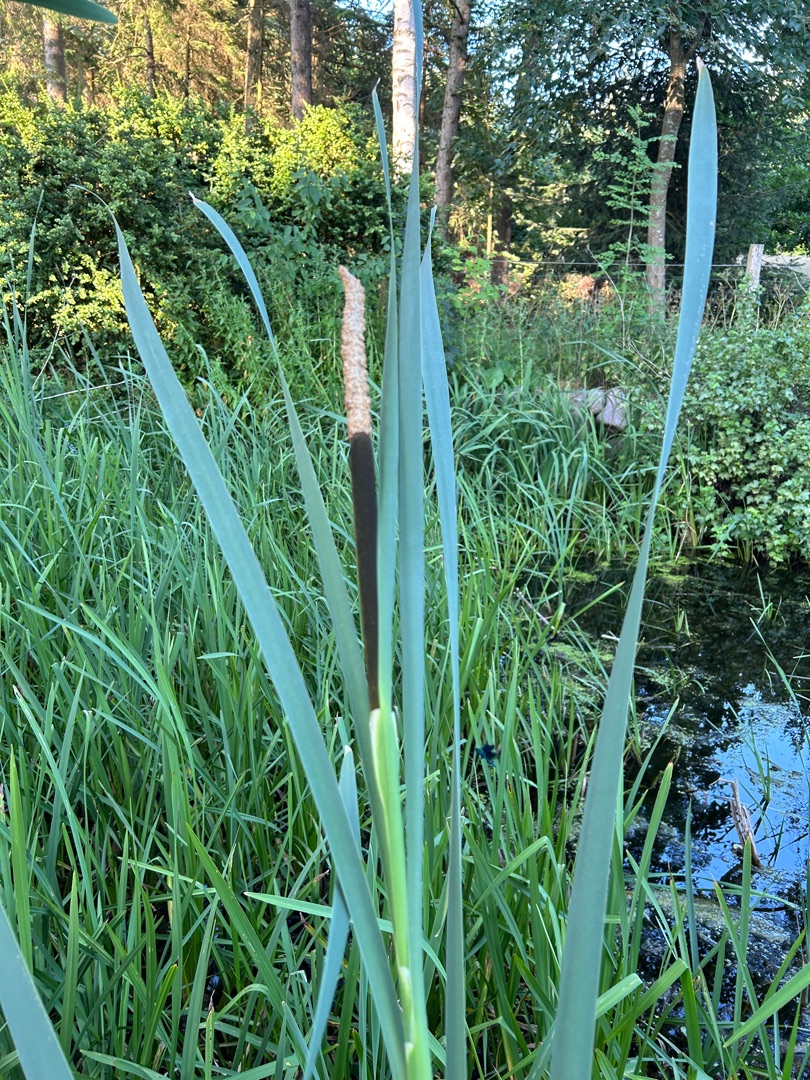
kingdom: Plantae
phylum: Tracheophyta
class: Liliopsida
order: Poales
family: Typhaceae
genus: Typha
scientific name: Typha latifolia
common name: Bredbladet dunhammer
